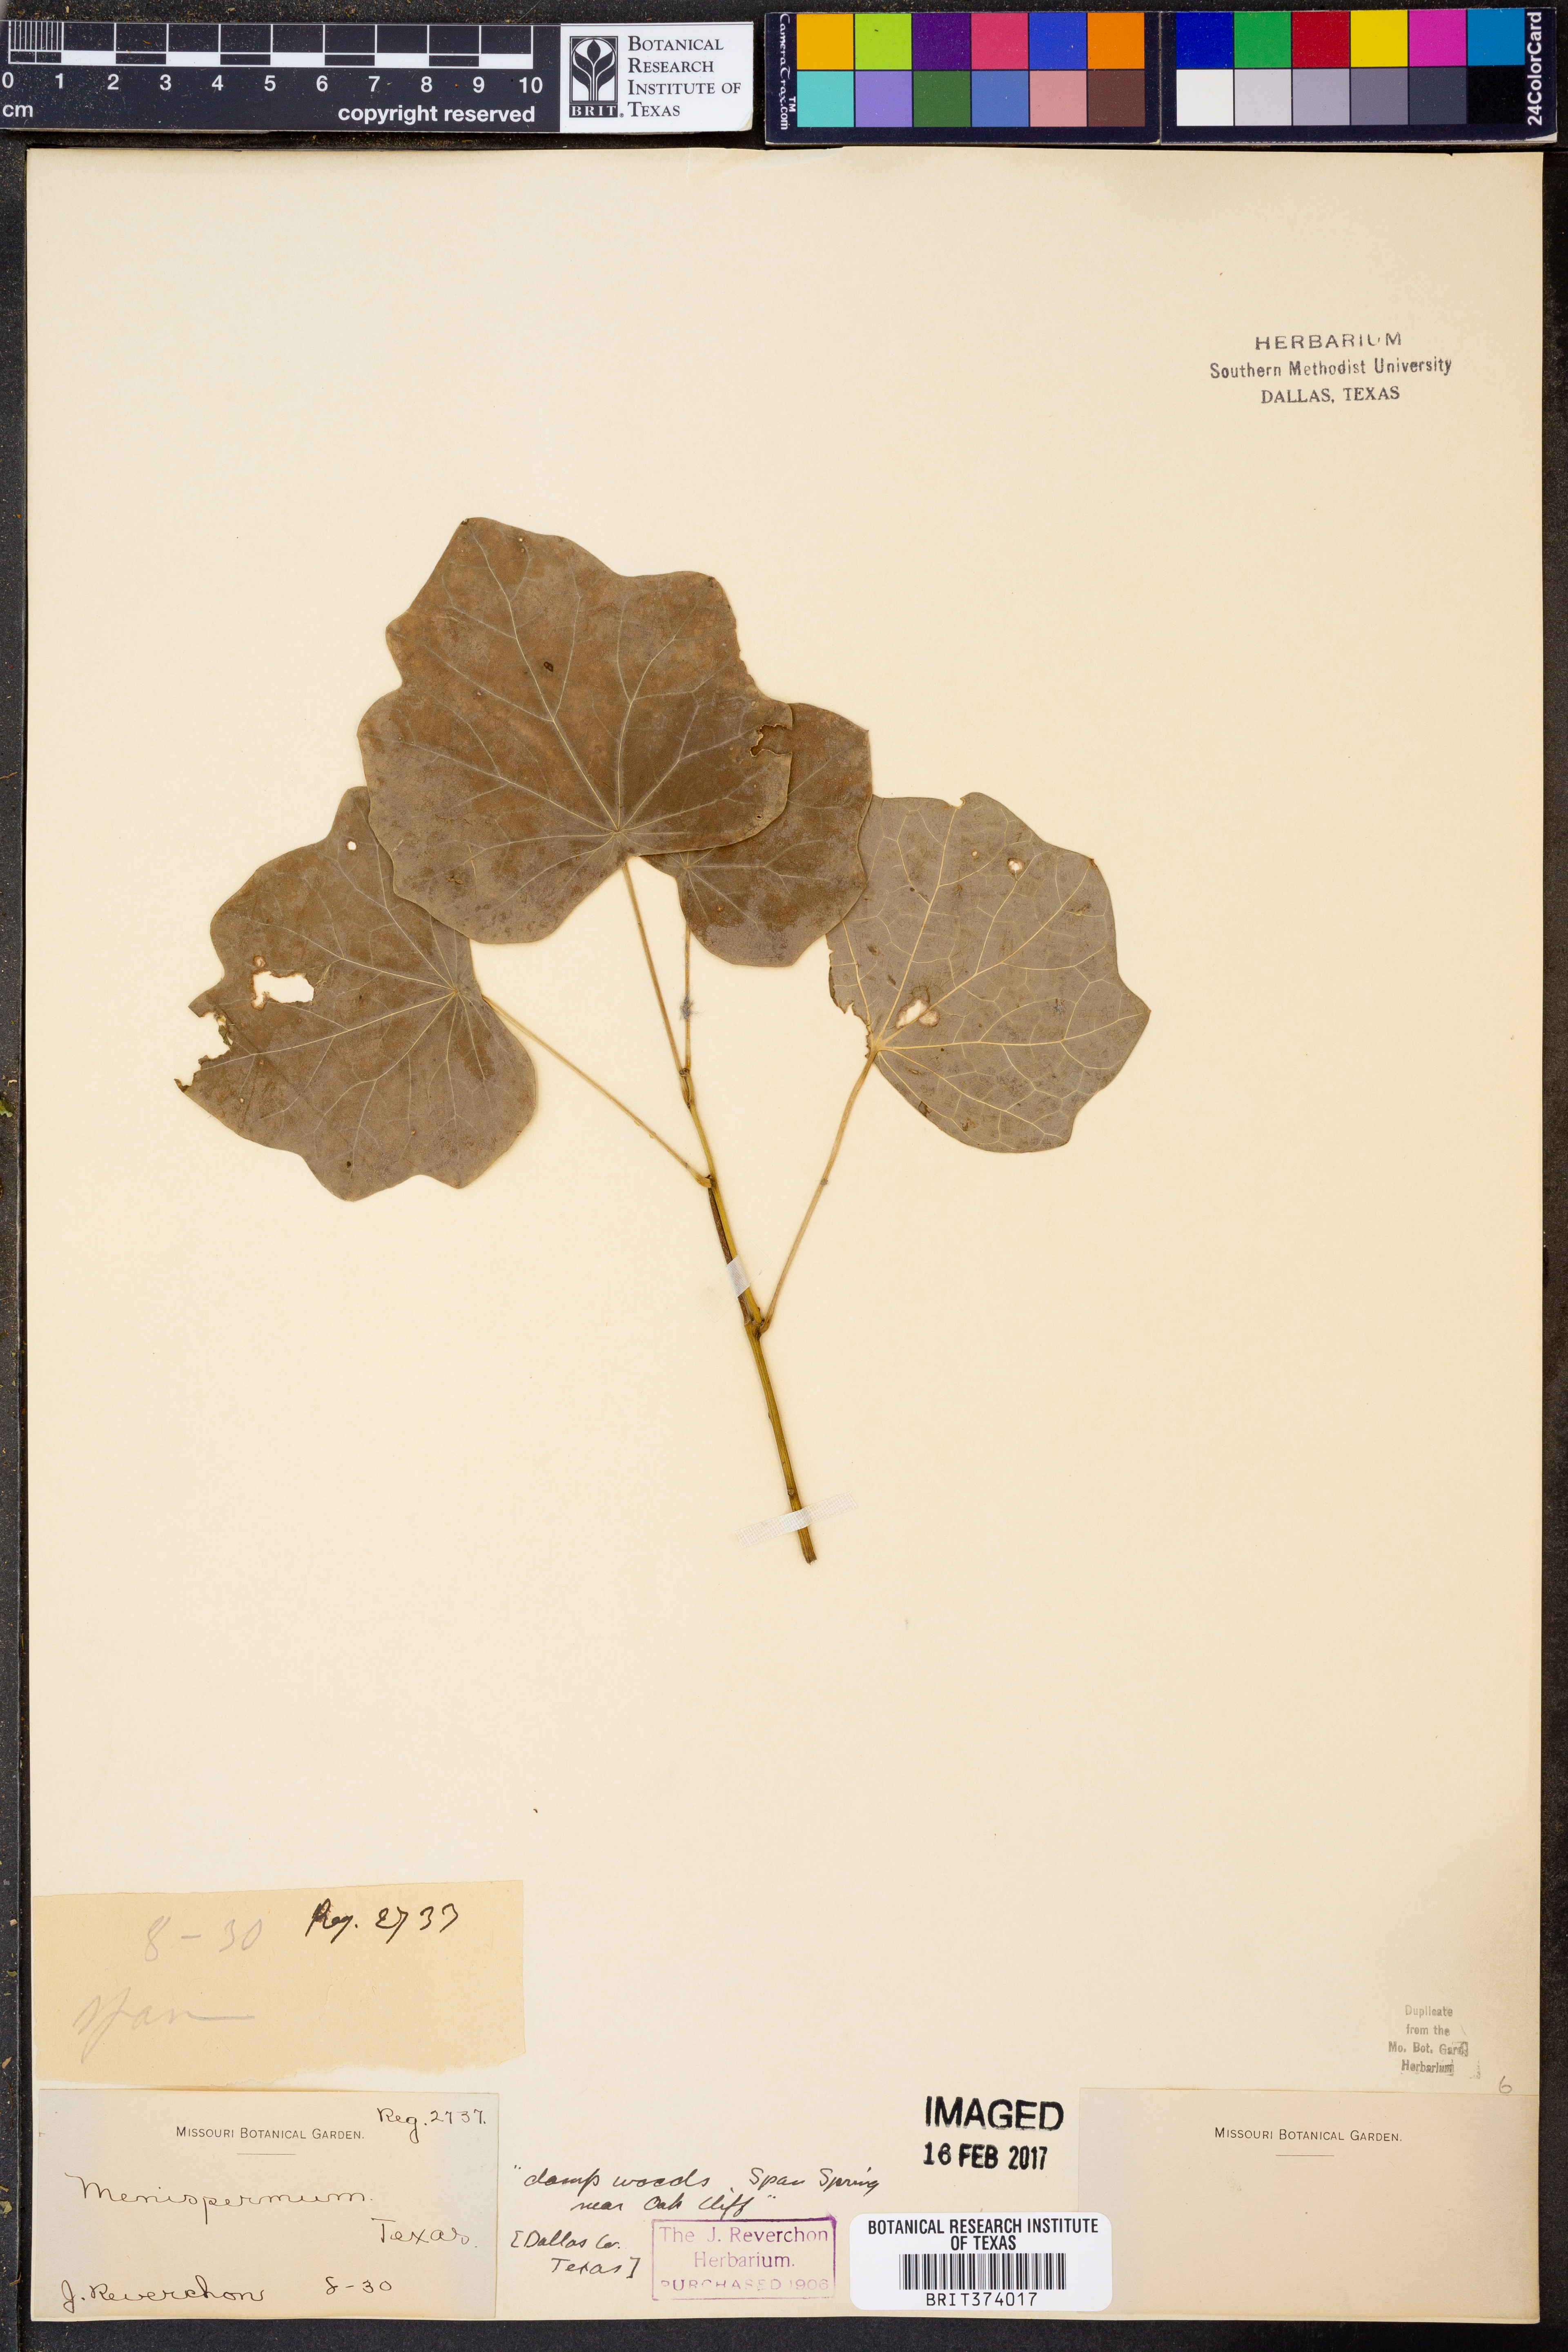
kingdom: Plantae
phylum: Tracheophyta
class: Magnoliopsida
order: Ranunculales
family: Menispermaceae
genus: Menispermum
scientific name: Menispermum
